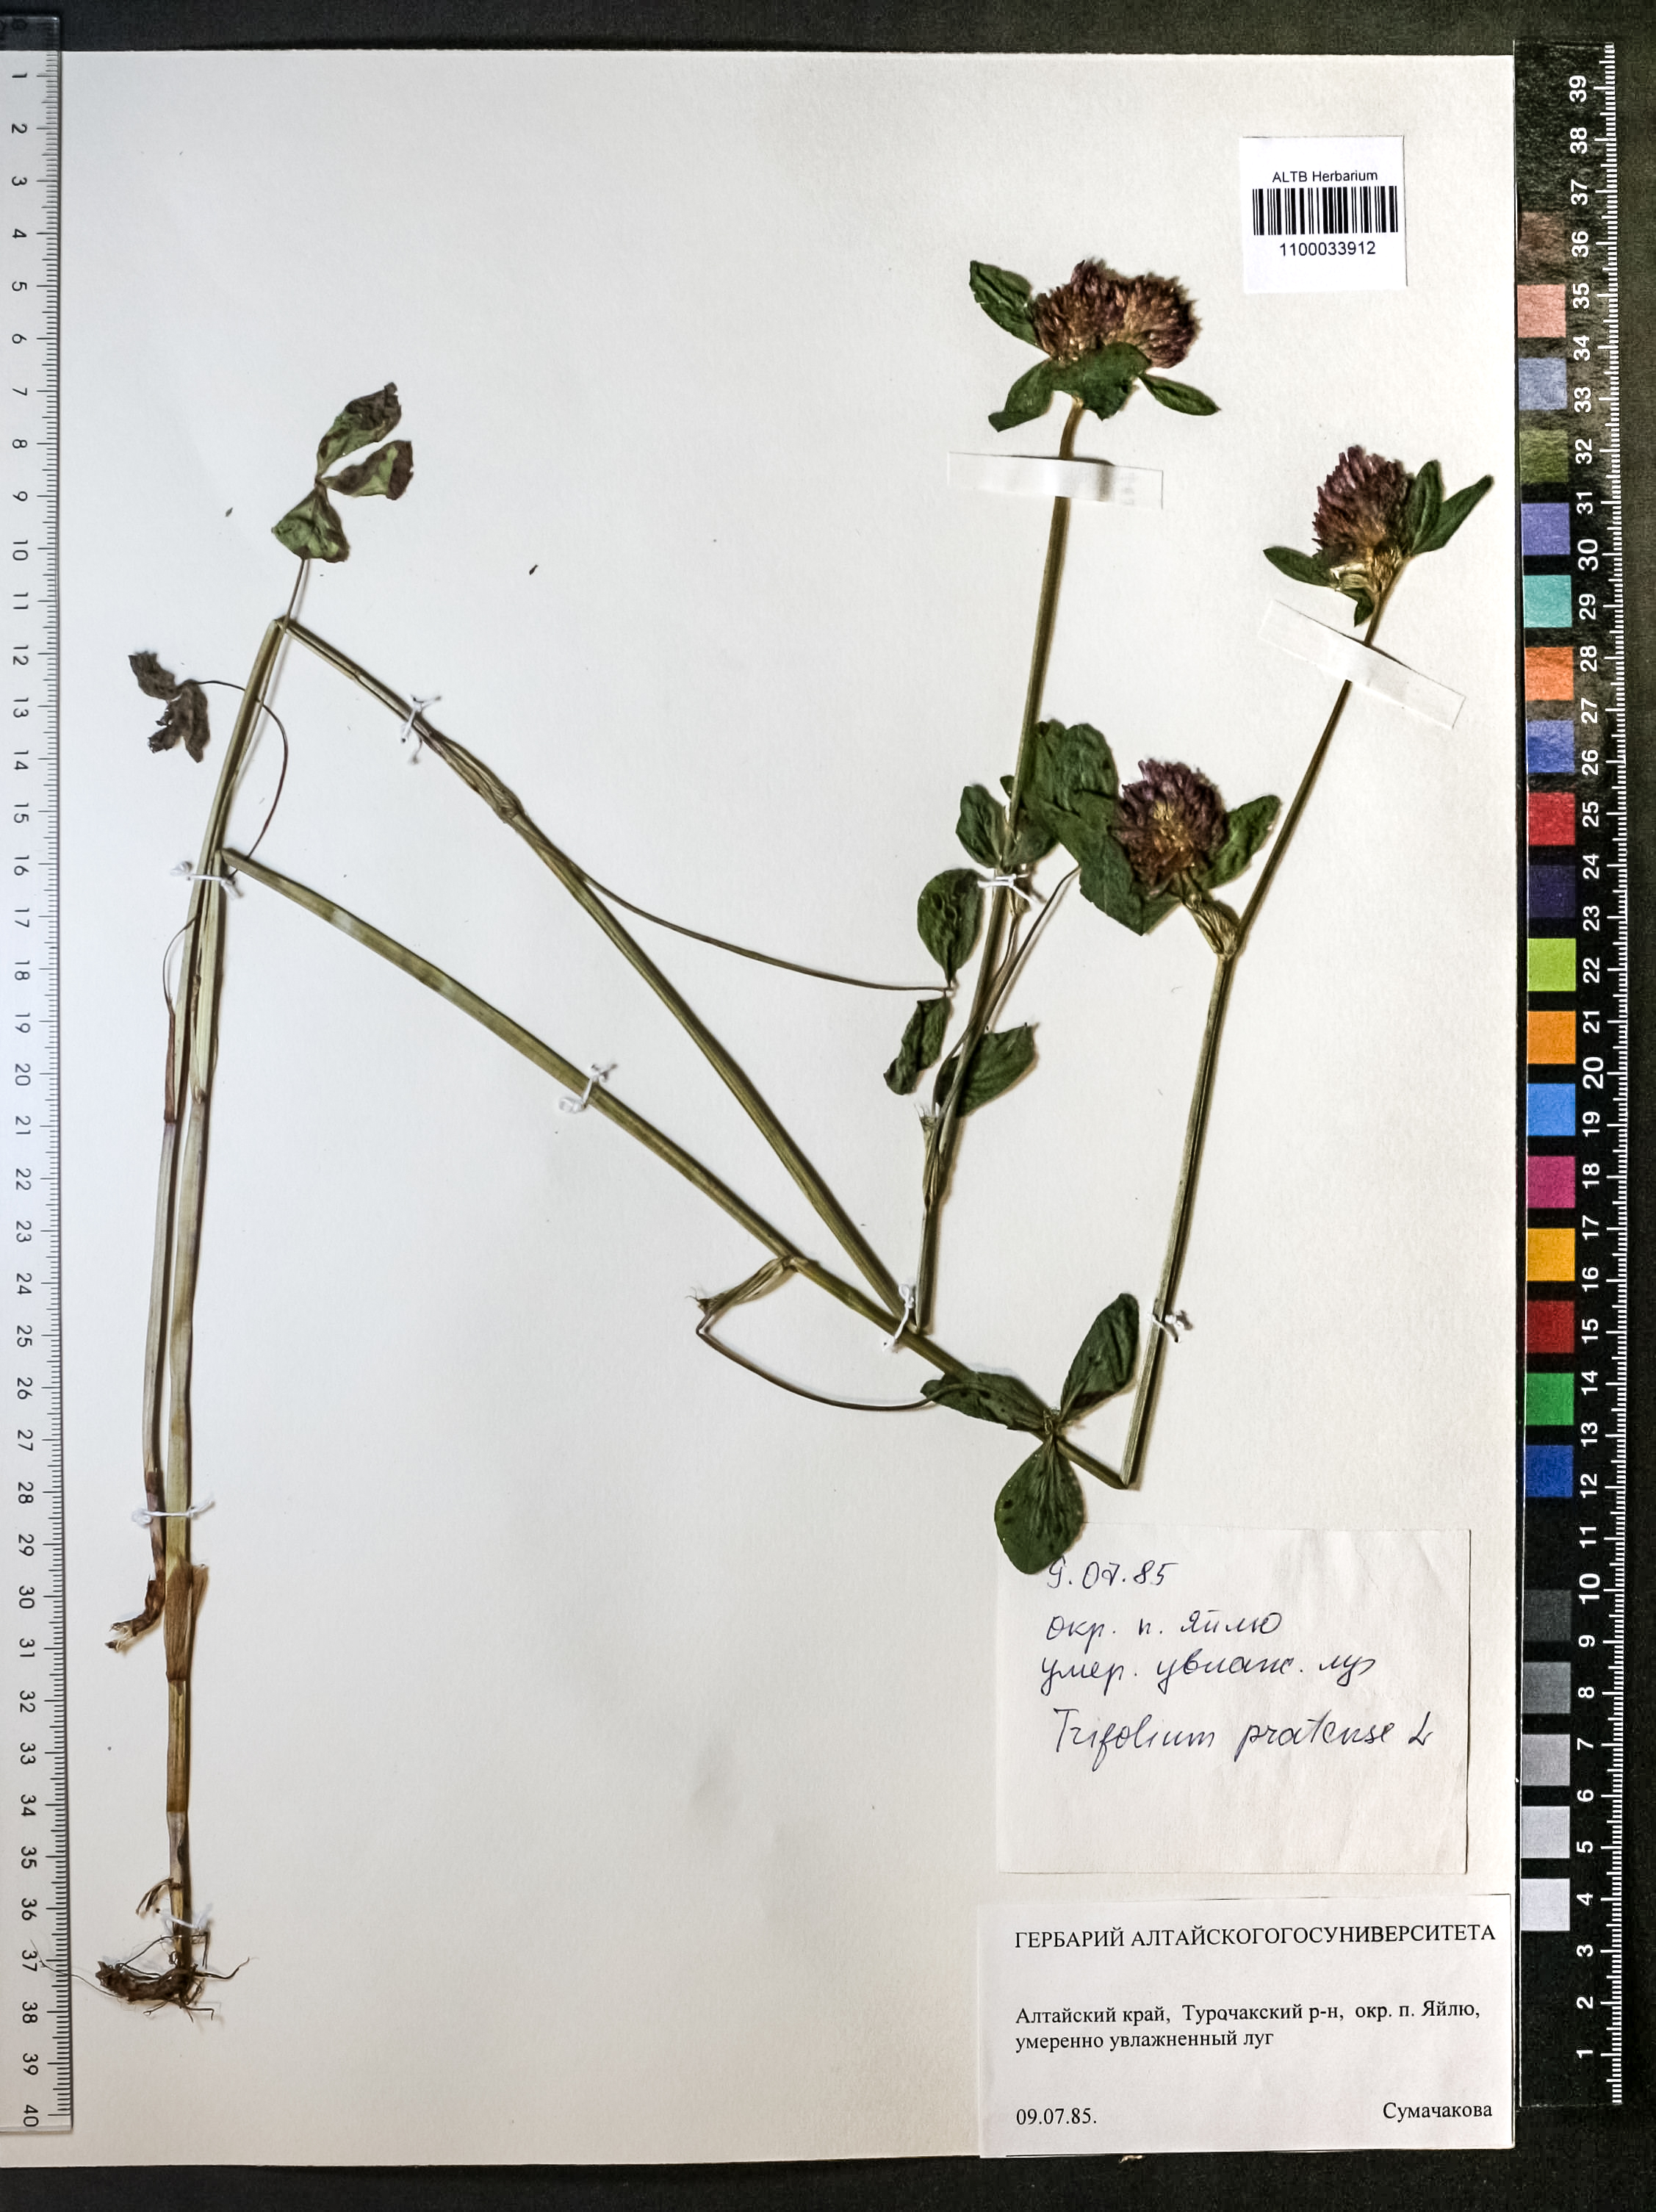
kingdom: Plantae
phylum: Tracheophyta
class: Magnoliopsida
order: Fabales
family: Fabaceae
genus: Trifolium
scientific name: Trifolium pratense
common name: Red clover
